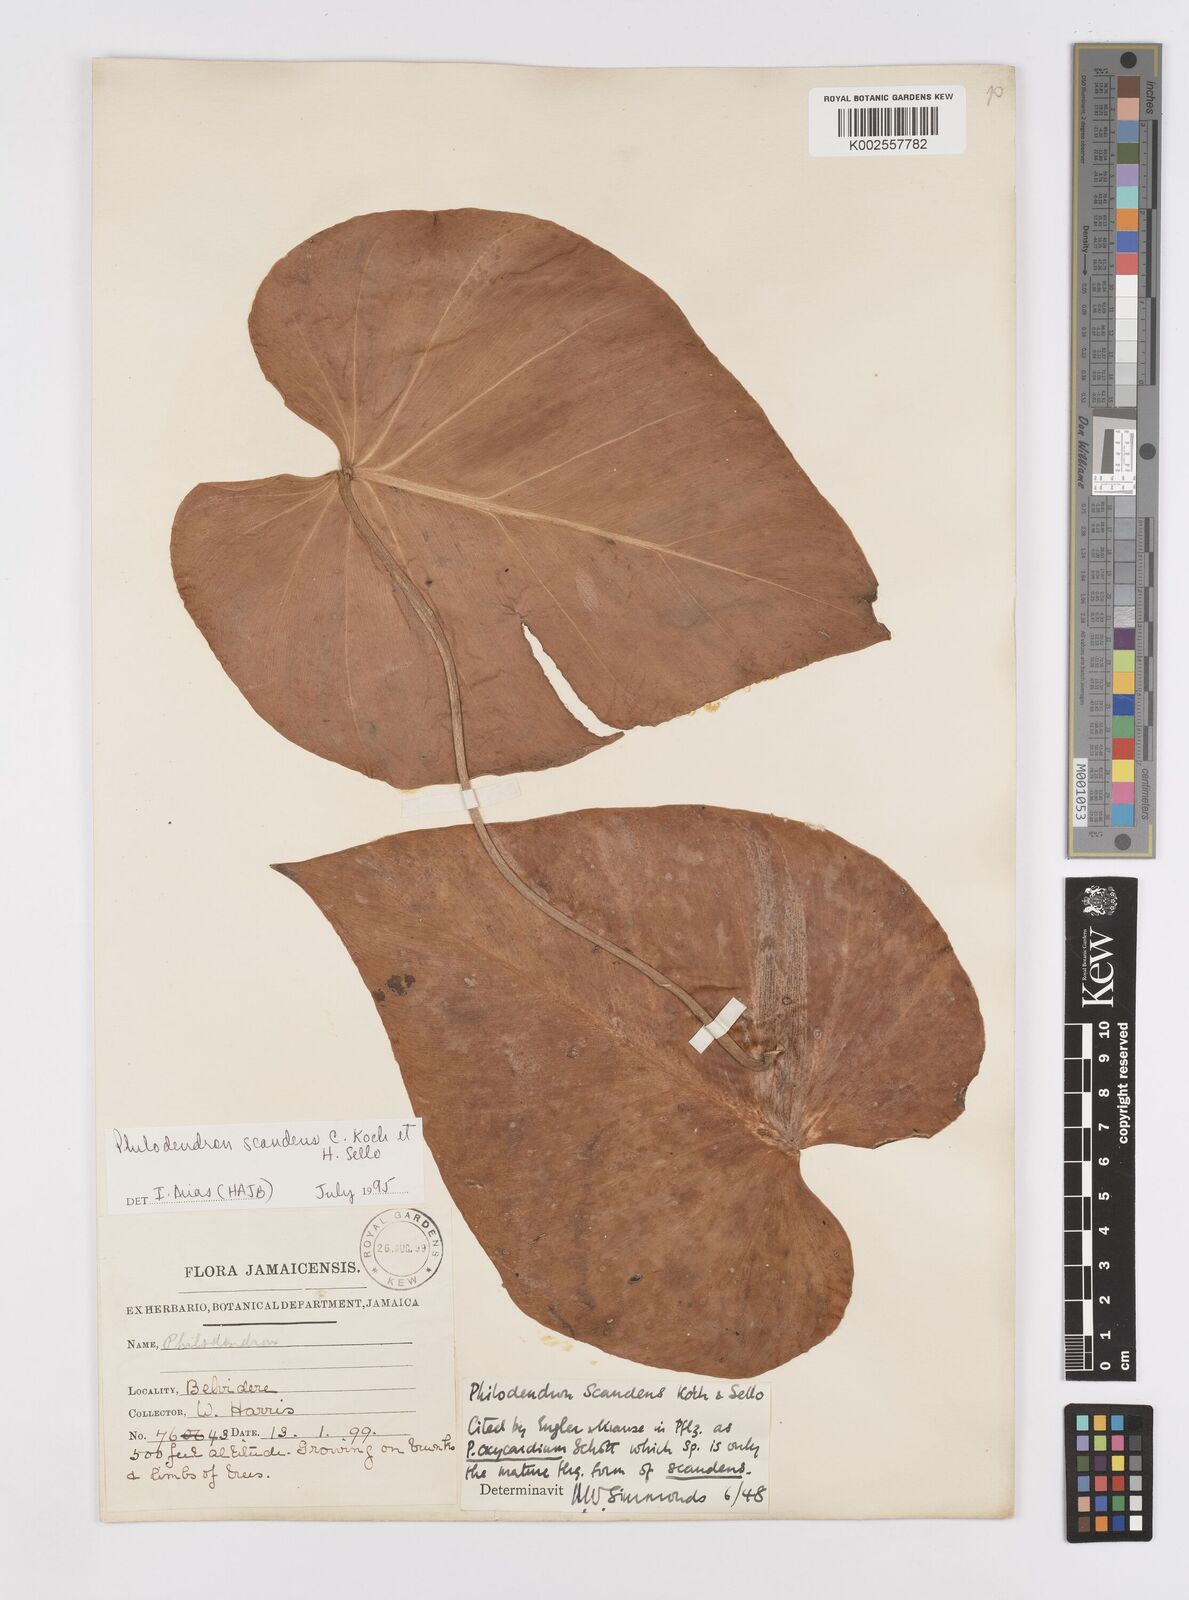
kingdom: Plantae
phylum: Tracheophyta
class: Liliopsida
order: Alismatales
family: Araceae
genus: Philodendron
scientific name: Philodendron hederaceum
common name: Vilevine
